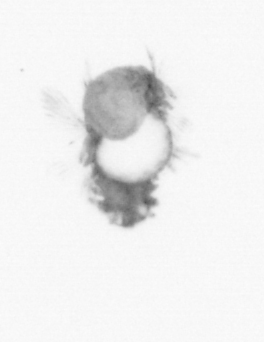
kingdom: Animalia
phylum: Annelida
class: Polychaeta
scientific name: Polychaeta
